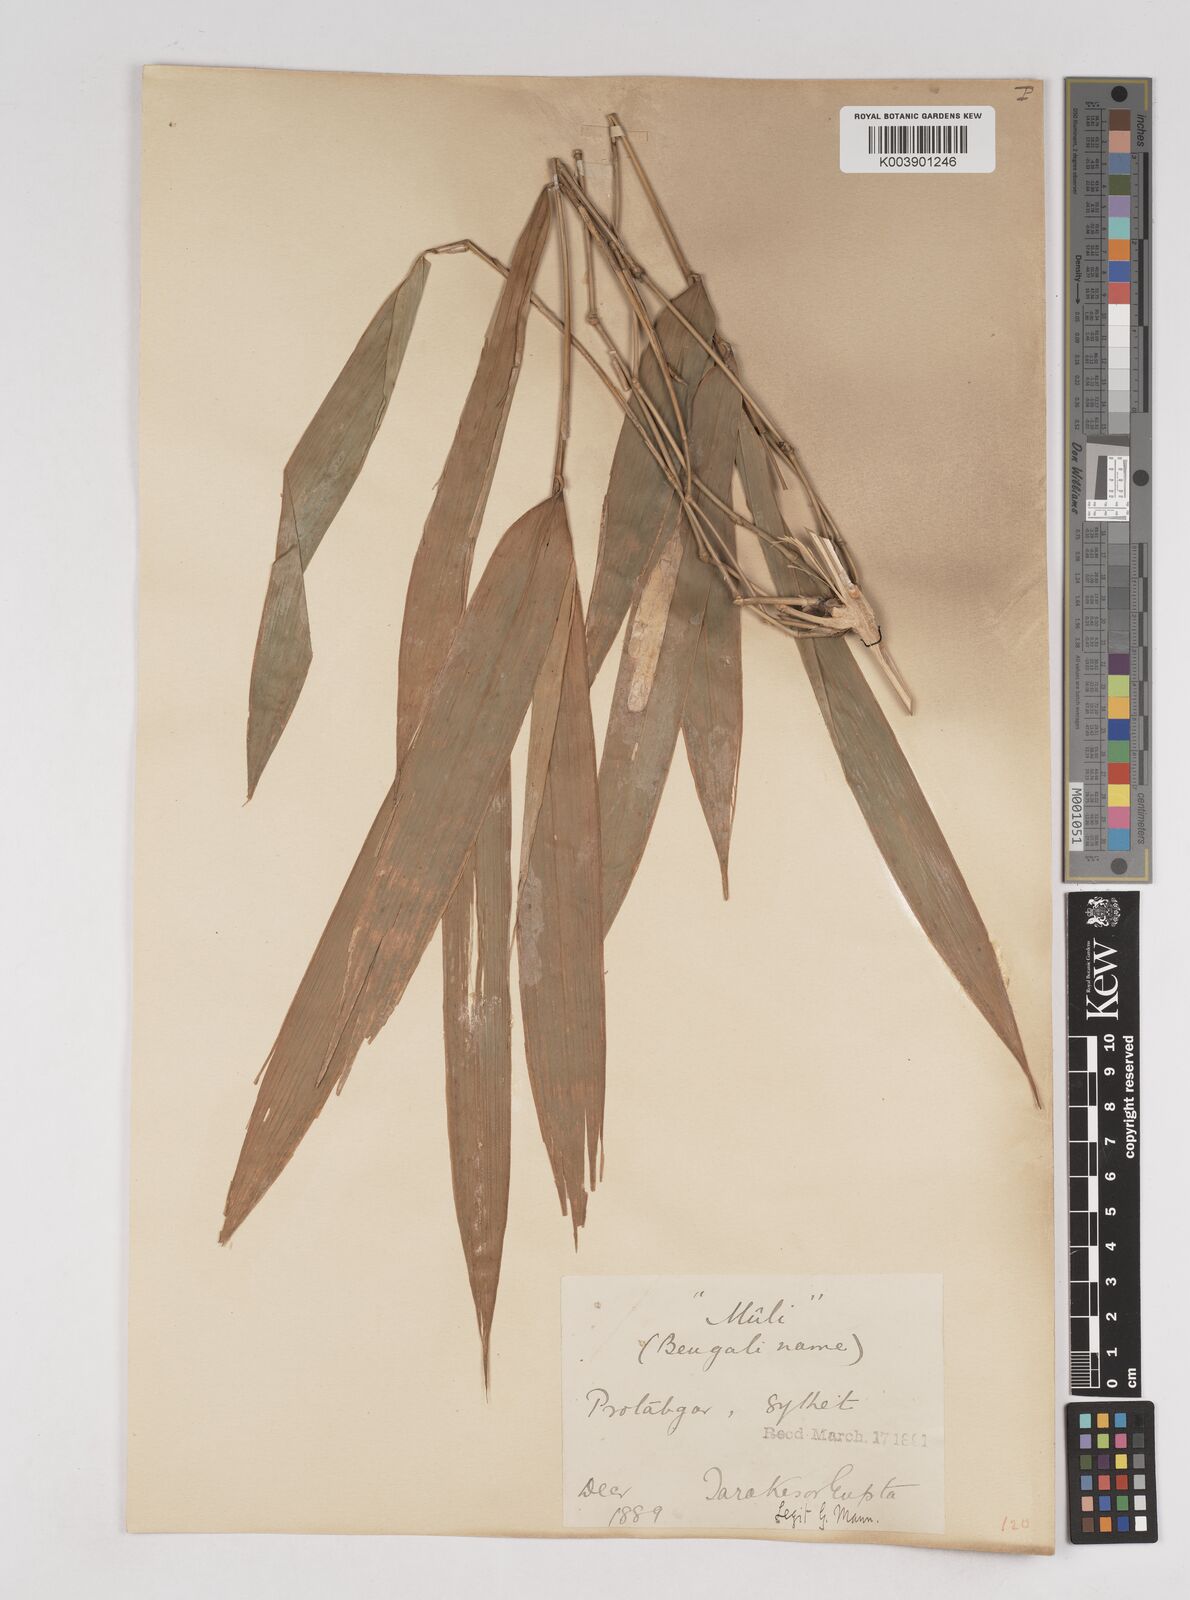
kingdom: Plantae
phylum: Tracheophyta
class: Liliopsida
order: Poales
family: Poaceae
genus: Melocanna
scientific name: Melocanna baccifera
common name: Berry bamboo
